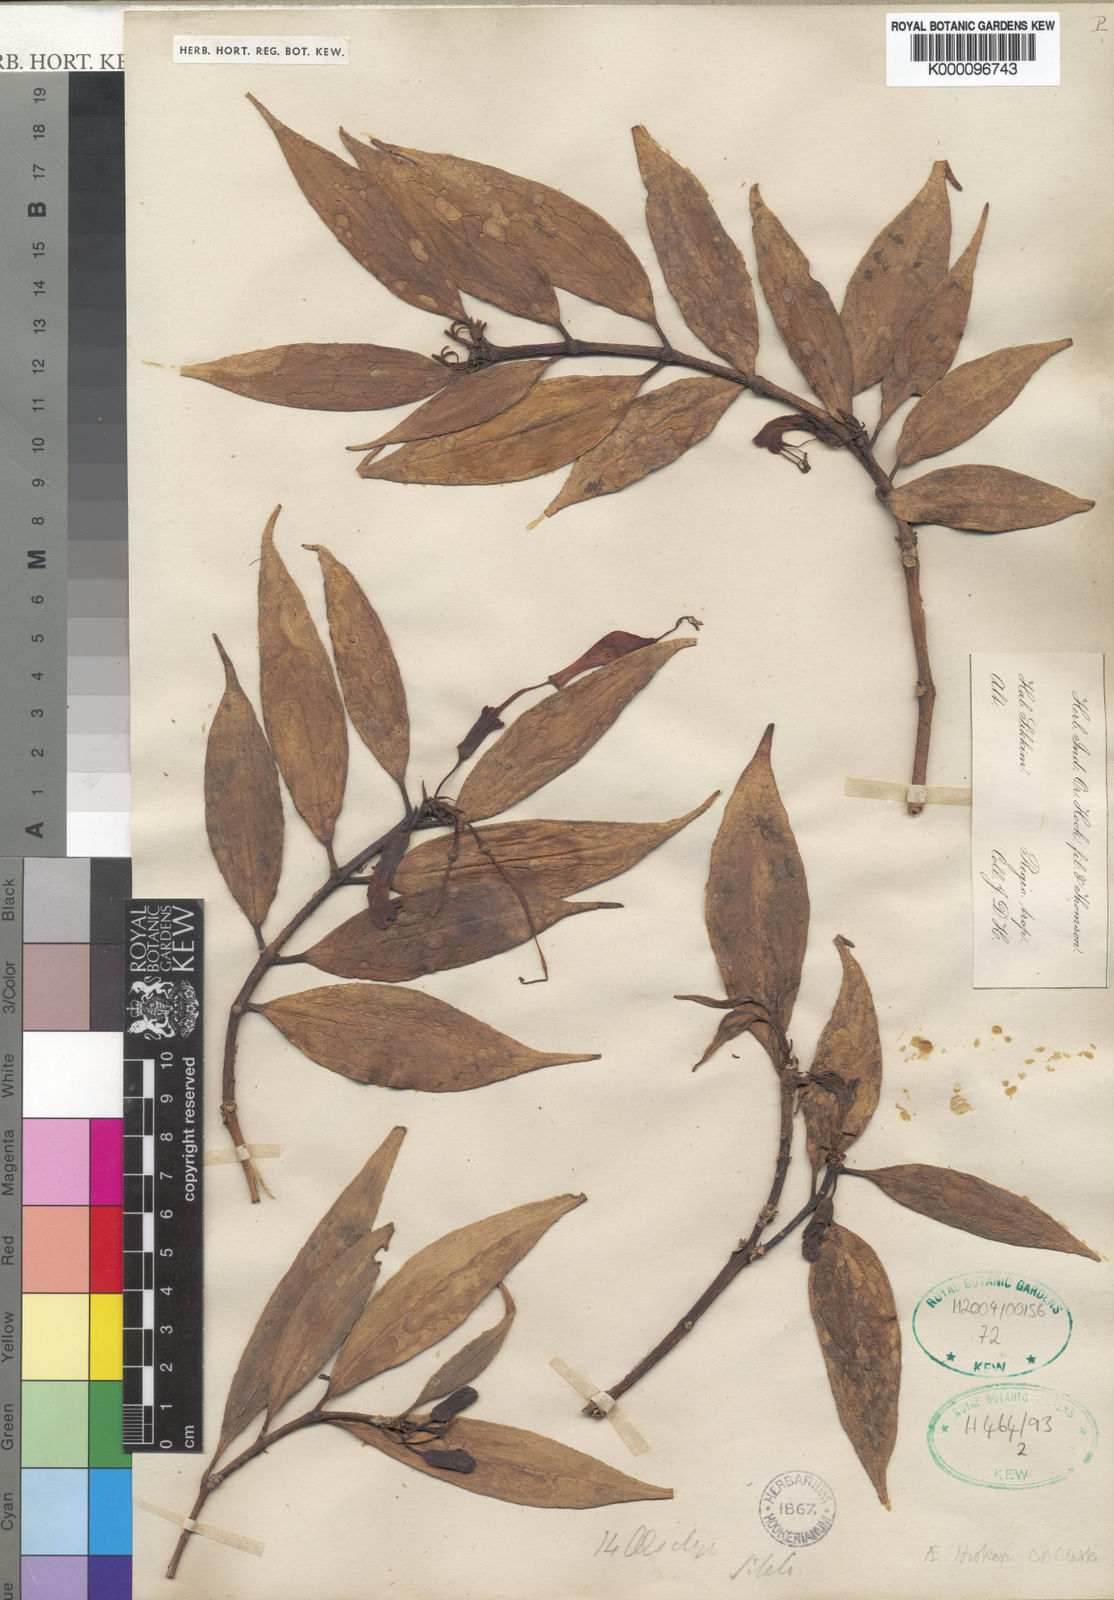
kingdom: Plantae
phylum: Tracheophyta
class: Magnoliopsida
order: Lamiales
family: Gesneriaceae
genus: Aeschynanthus
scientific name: Aeschynanthus hookeri
